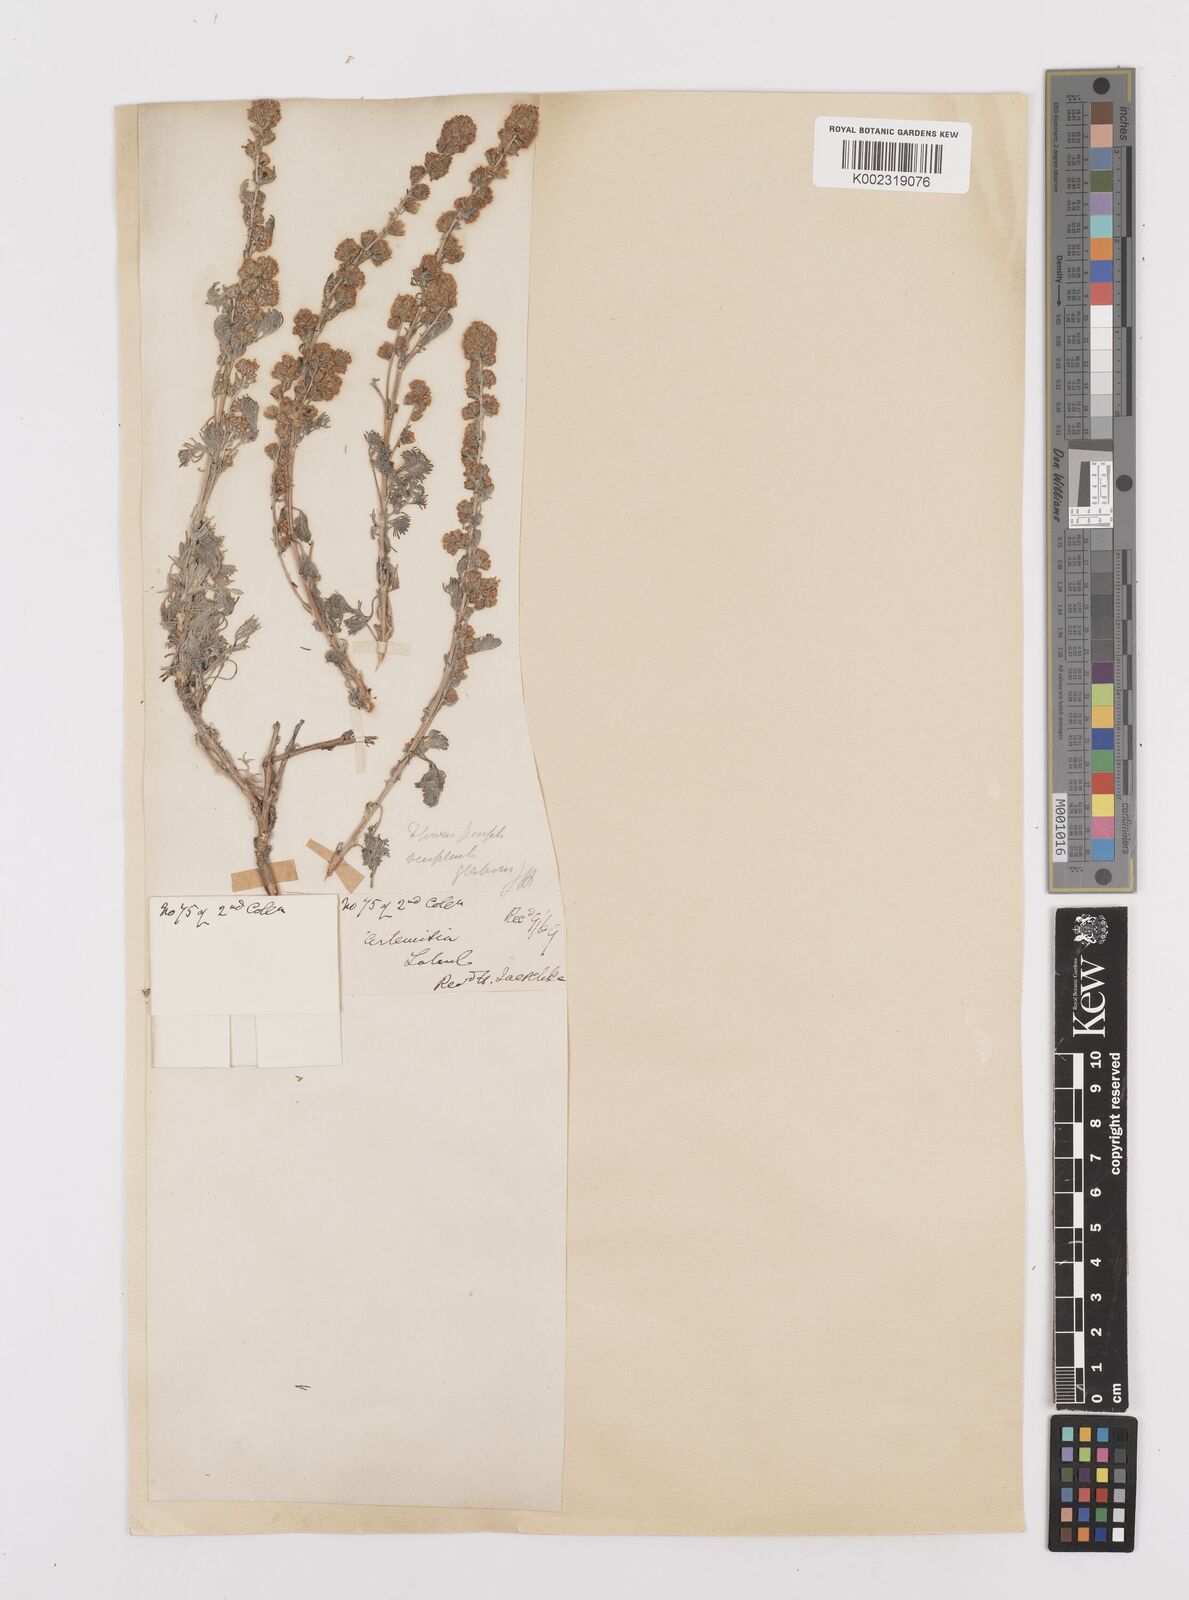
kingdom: Plantae
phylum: Tracheophyta
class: Magnoliopsida
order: Asterales
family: Asteraceae
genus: Artemisia
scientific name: Artemisia compacta
